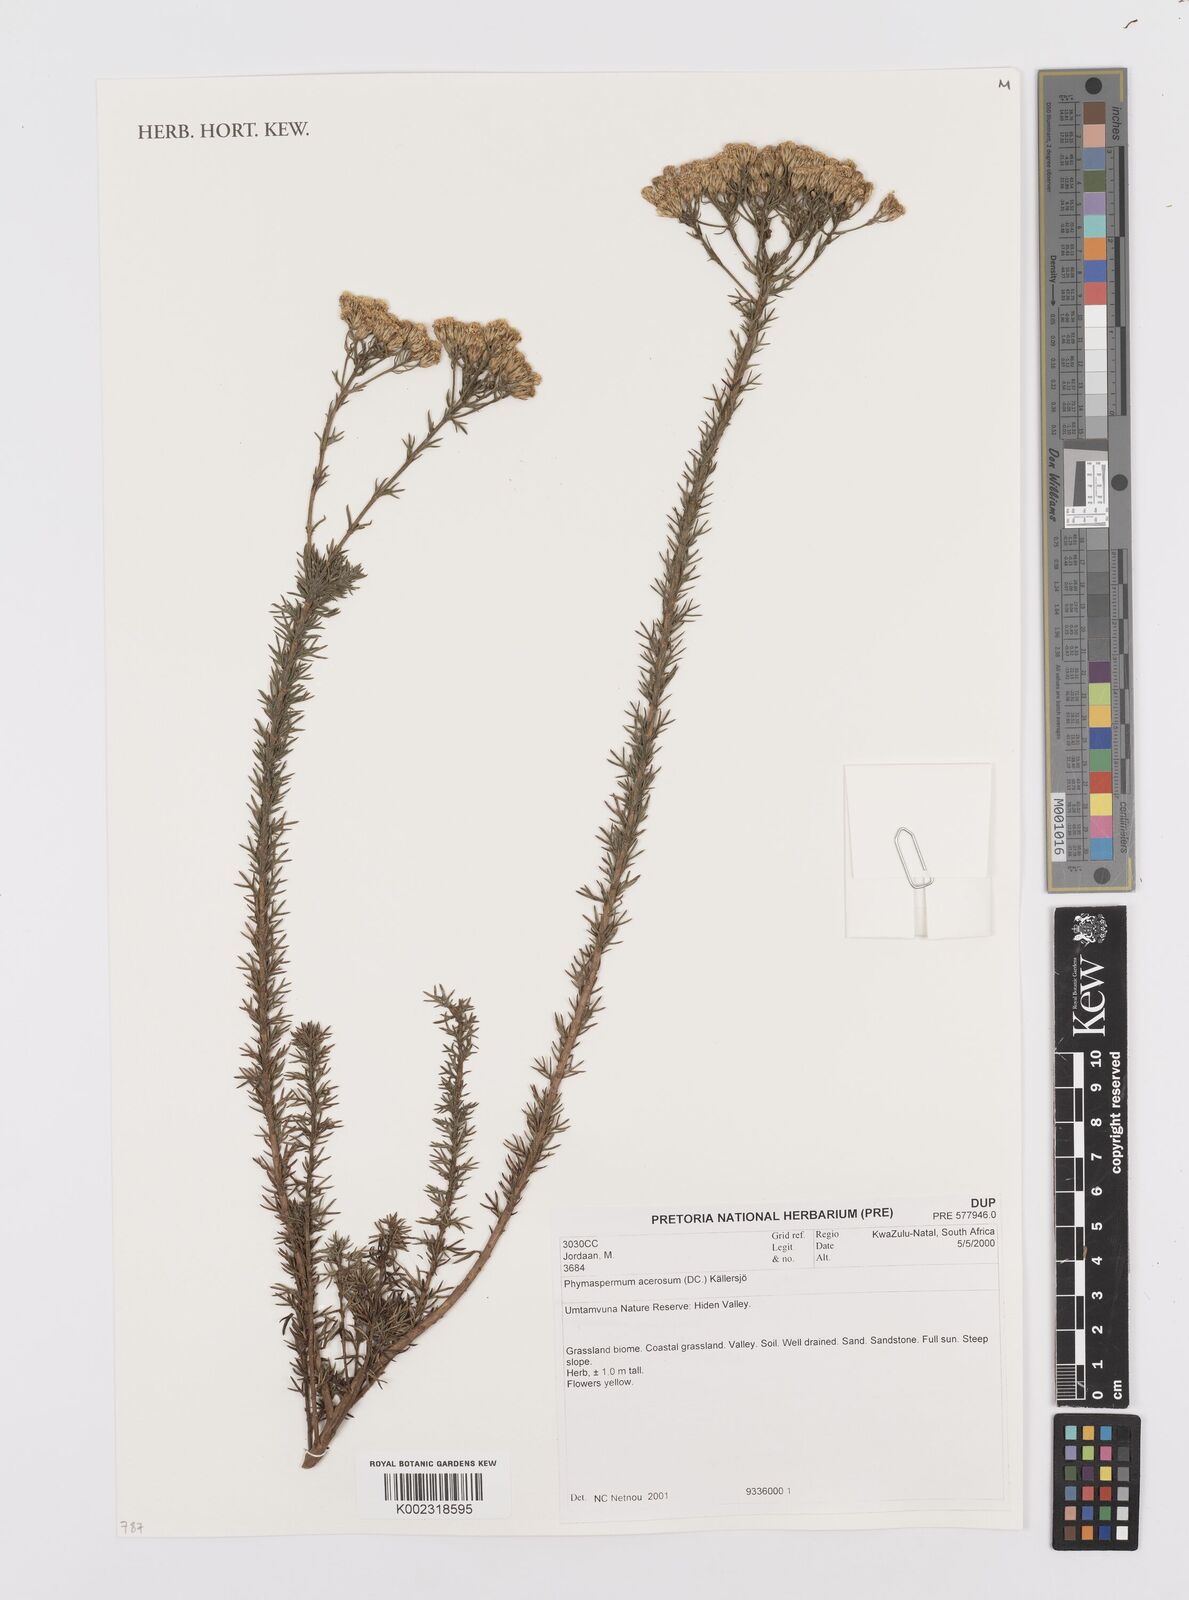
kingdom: Plantae
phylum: Tracheophyta
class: Magnoliopsida
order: Asterales
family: Asteraceae
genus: Phymaspermum
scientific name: Phymaspermum acerosum
